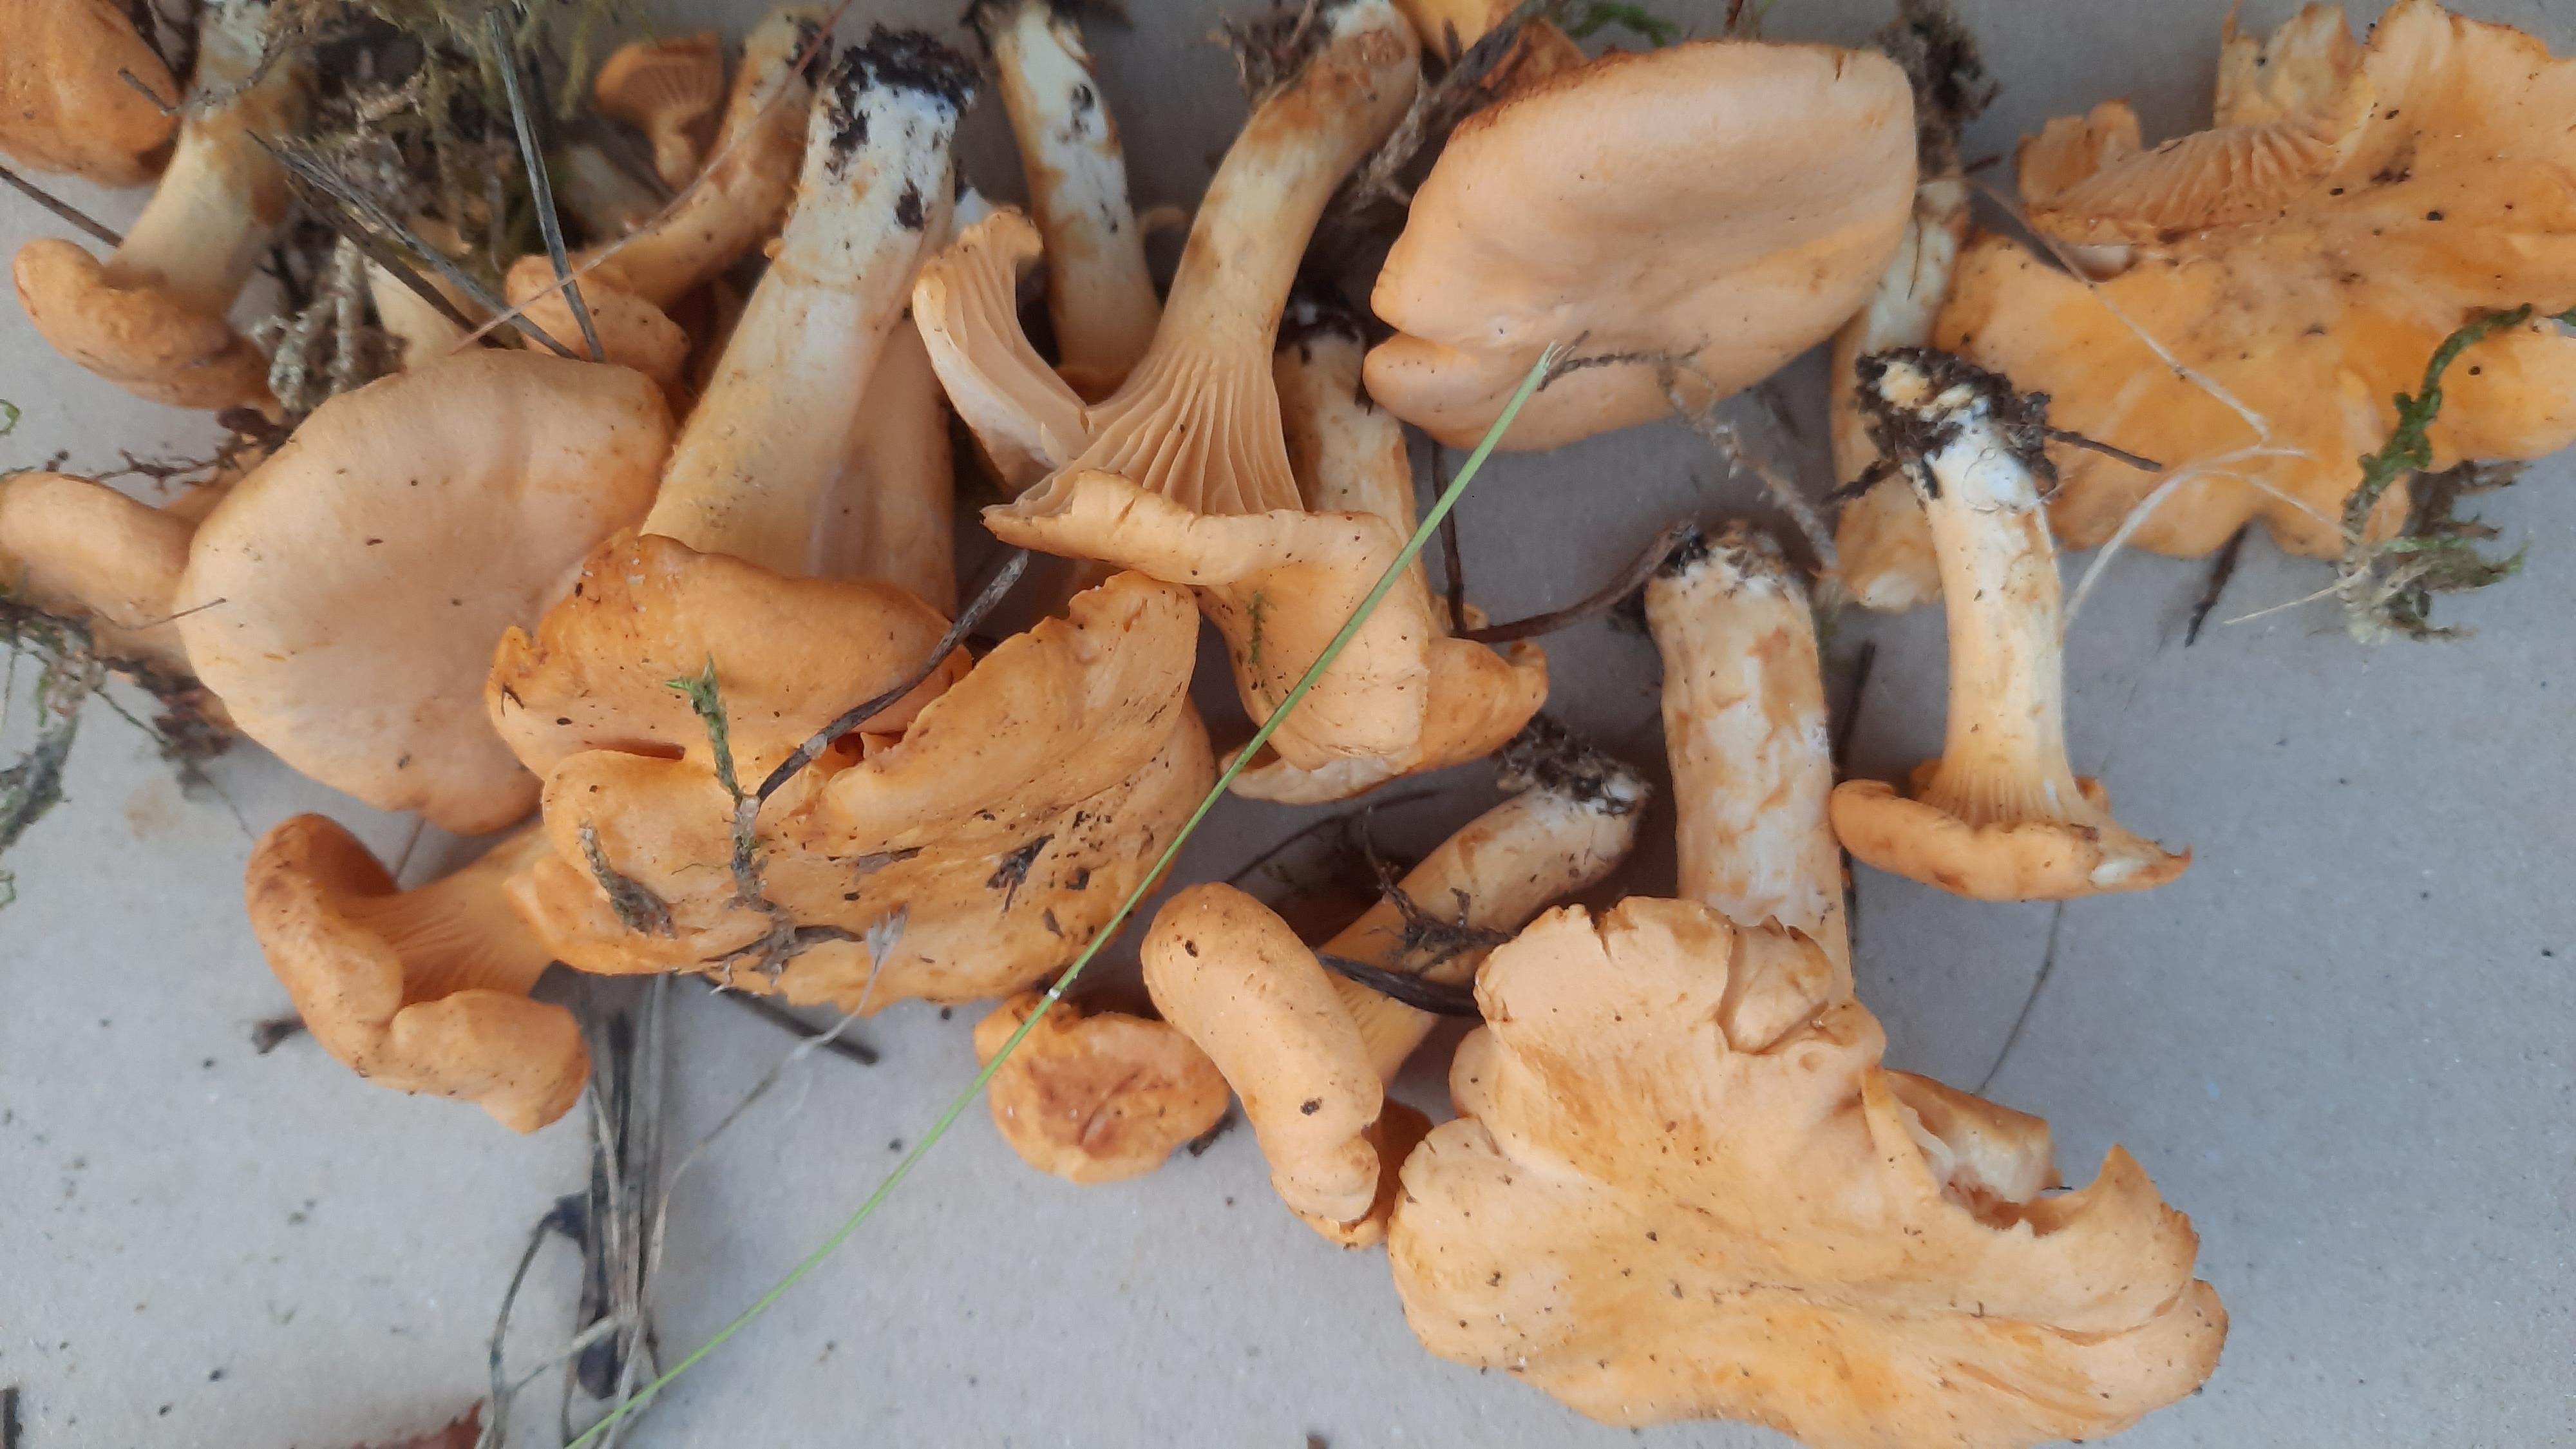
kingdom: Fungi
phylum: Basidiomycota
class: Agaricomycetes
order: Cantharellales
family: Hydnaceae
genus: Cantharellus
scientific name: Cantharellus cibarius
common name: almindelig kantarel
